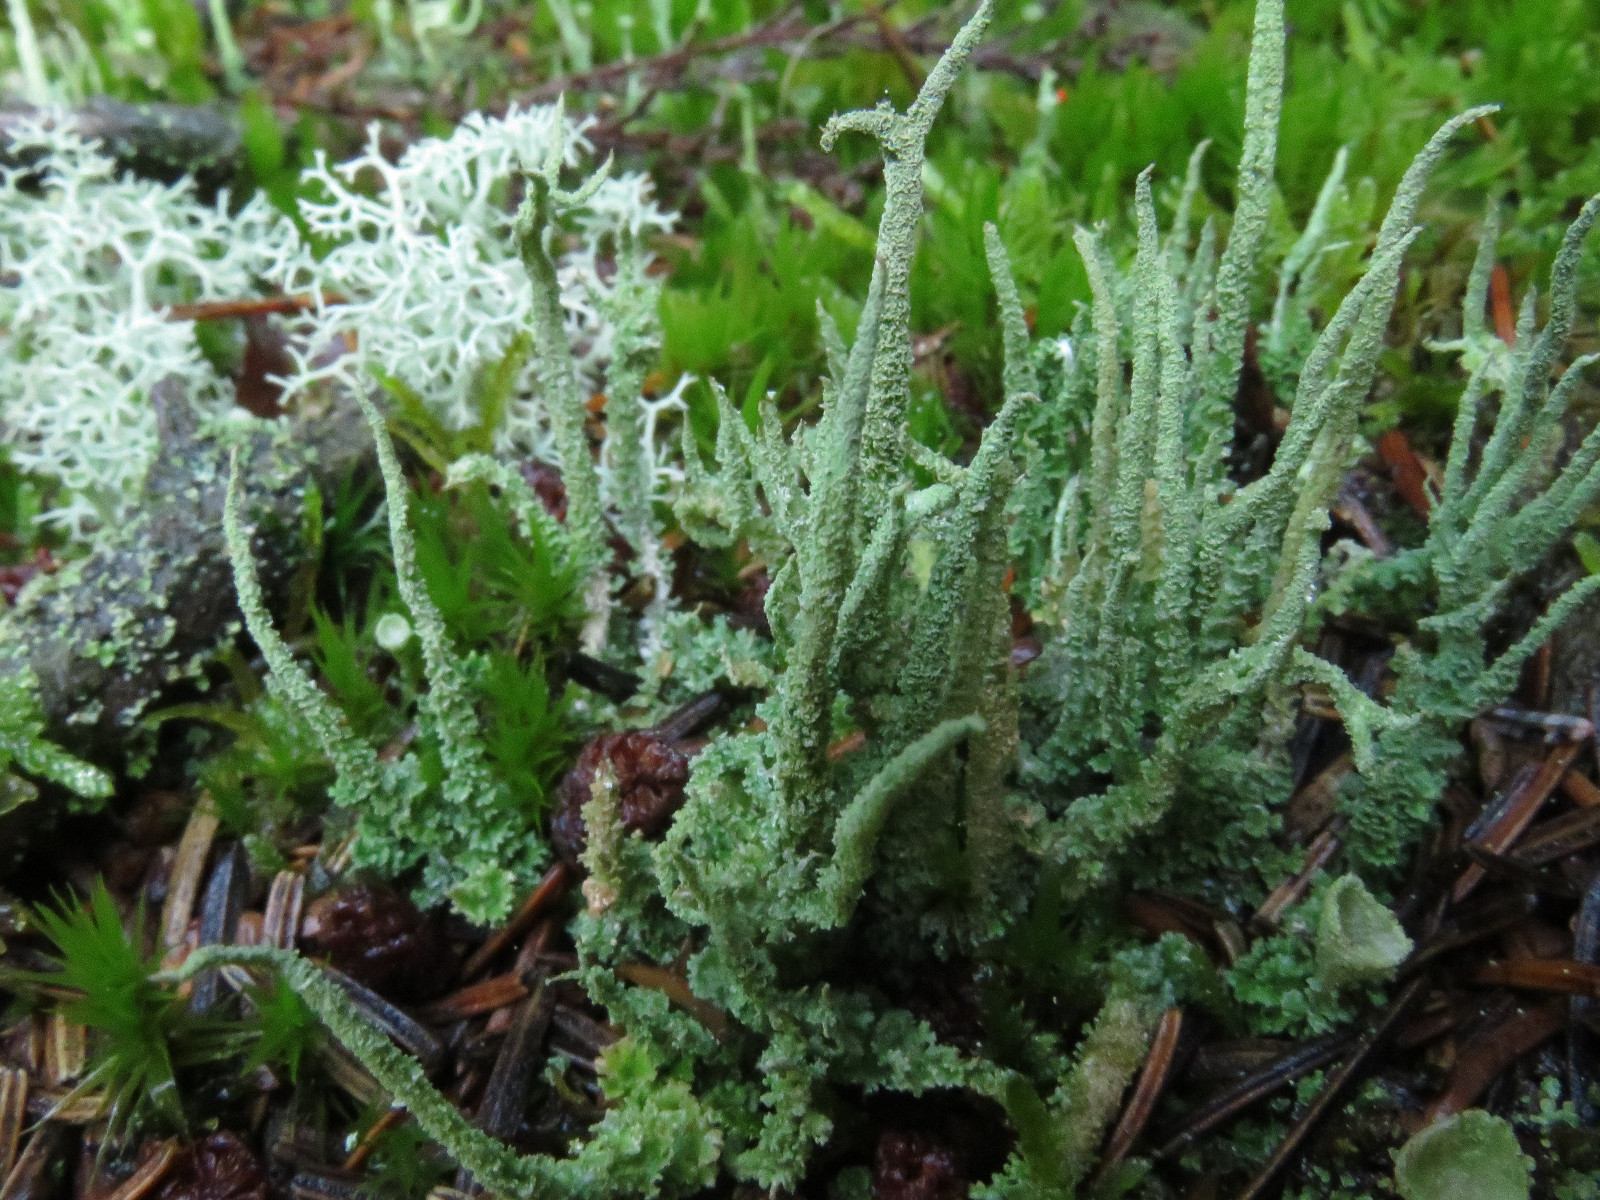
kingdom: Fungi
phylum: Ascomycota
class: Lecanoromycetes
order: Lecanorales
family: Cladoniaceae
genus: Cladonia
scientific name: Cladonia glauca
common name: grågrøn bægerlav
